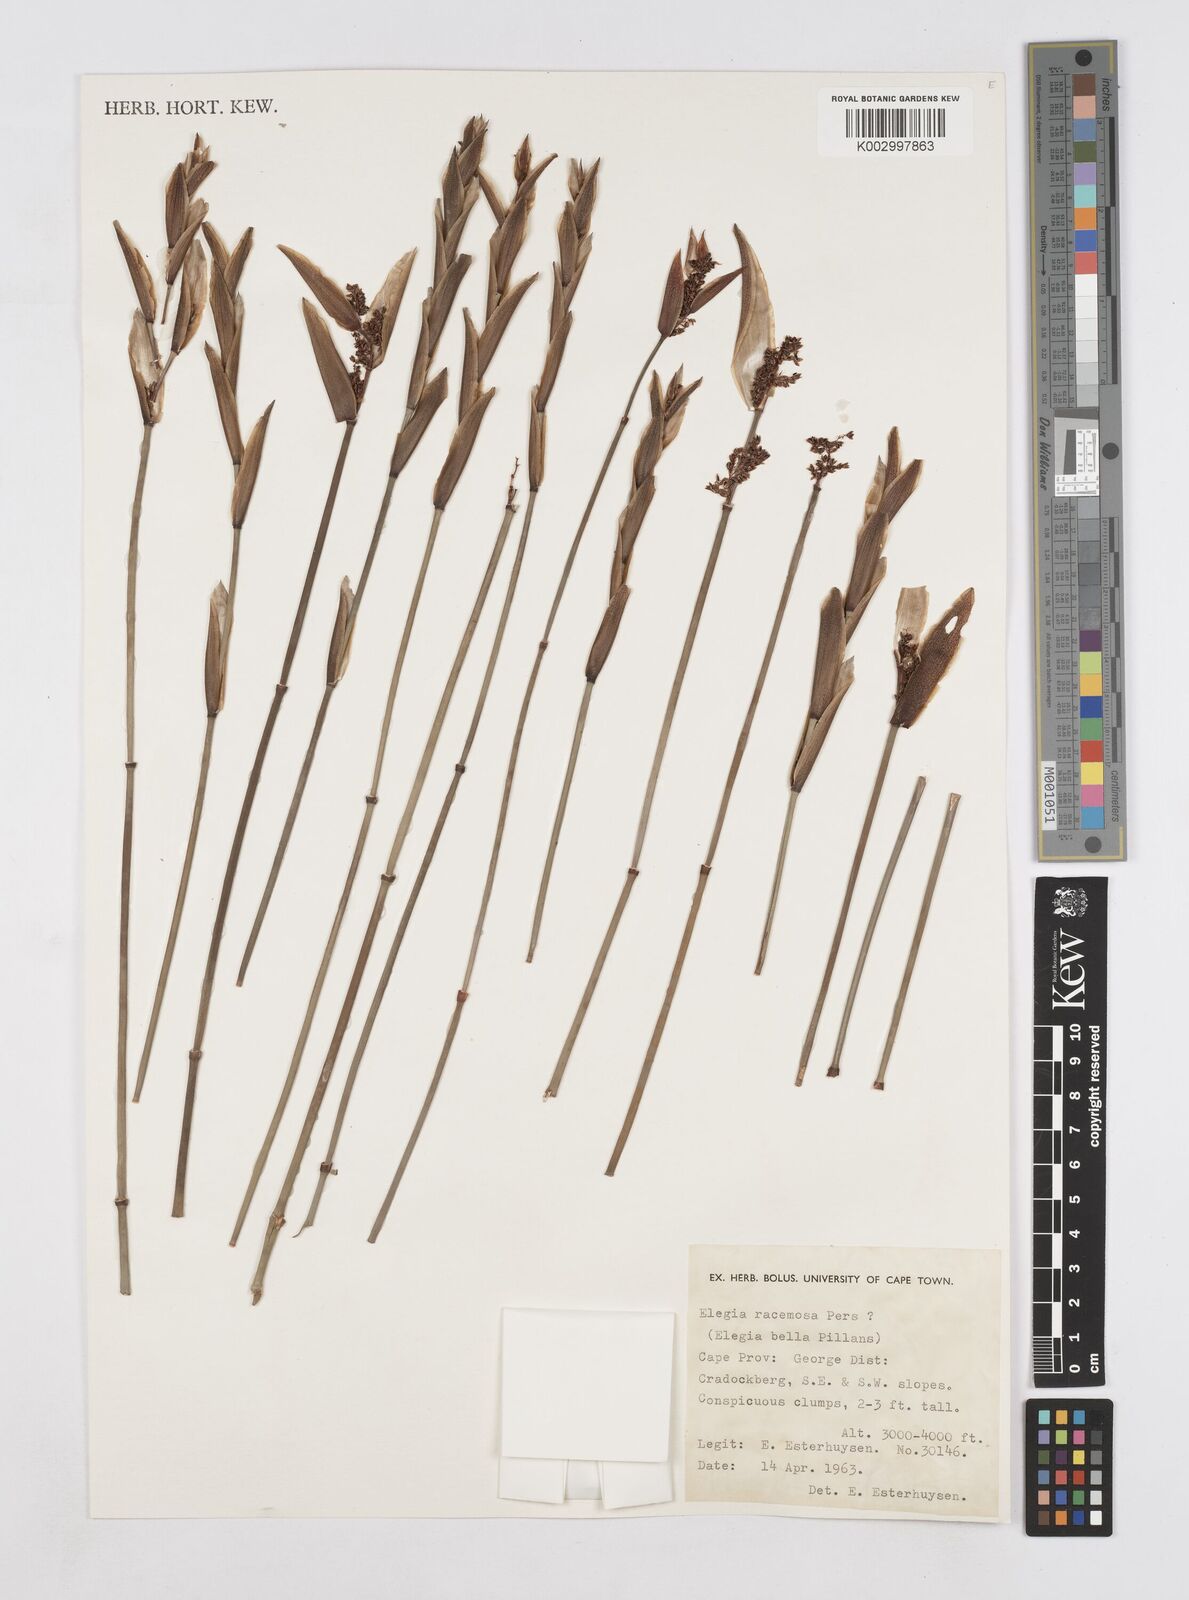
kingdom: Plantae
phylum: Tracheophyta
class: Liliopsida
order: Poales
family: Restionaceae
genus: Elegia
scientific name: Elegia racemosa
